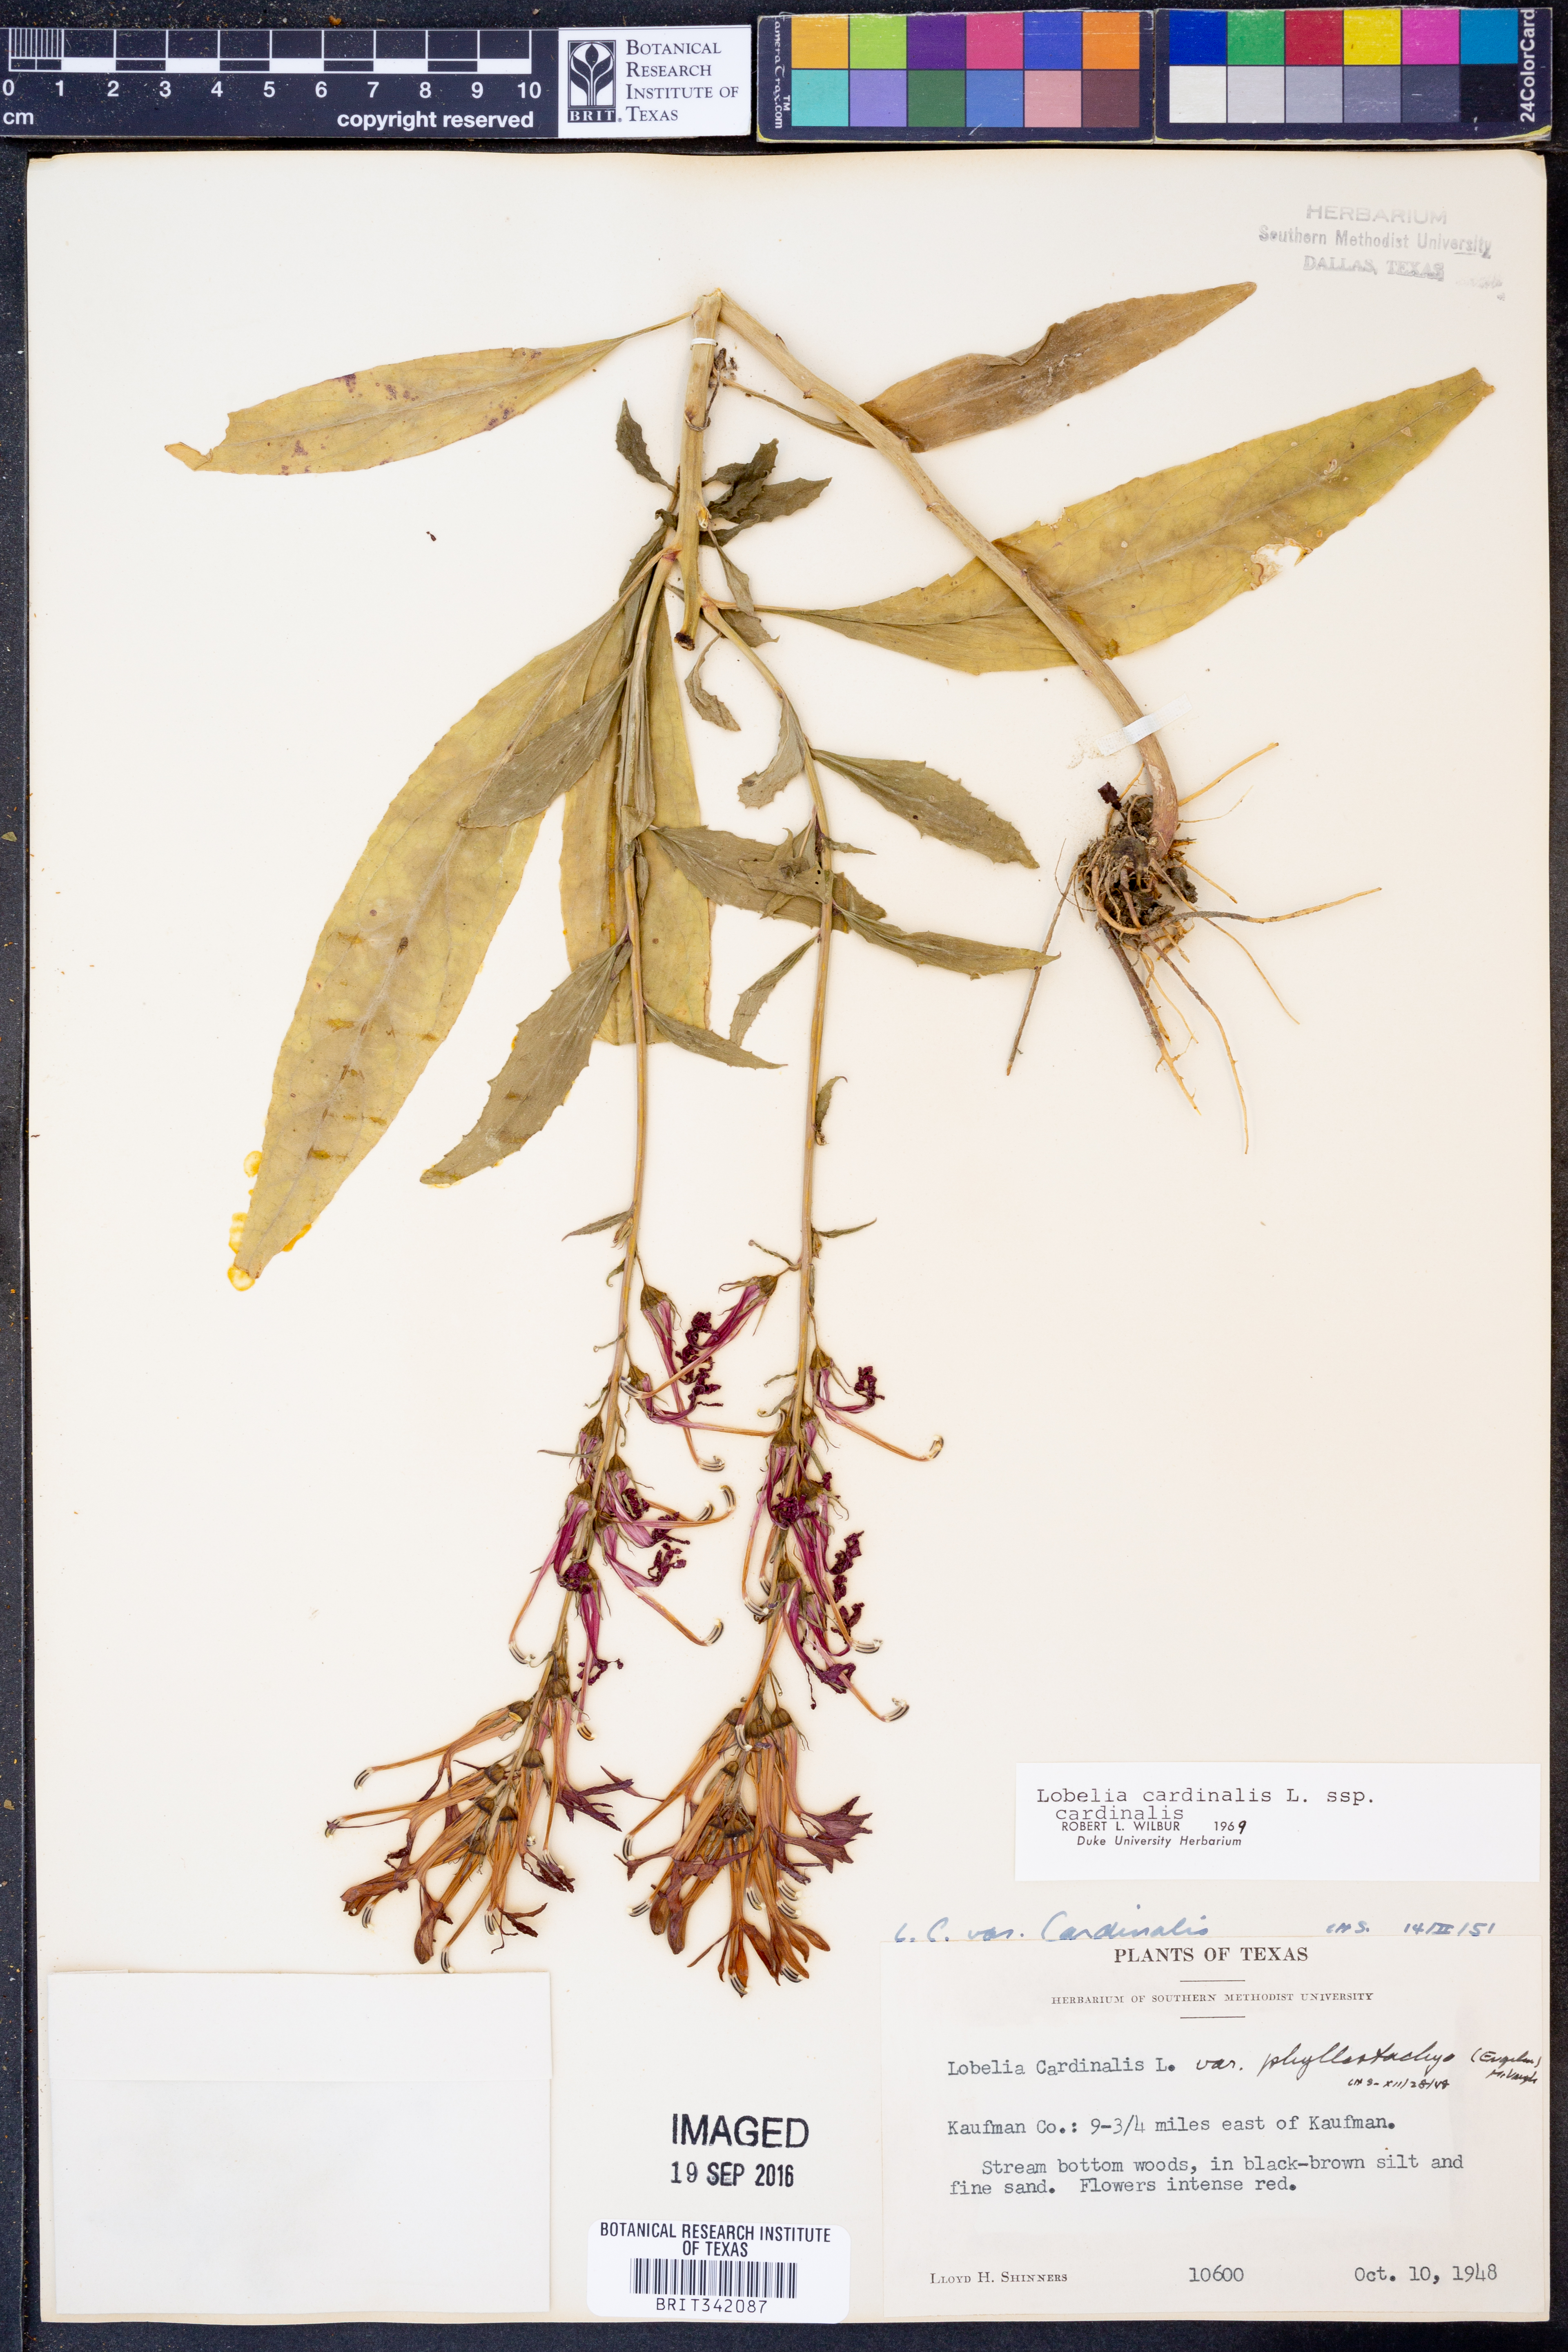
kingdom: Plantae
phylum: Tracheophyta
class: Magnoliopsida
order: Asterales
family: Campanulaceae
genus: Lobelia
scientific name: Lobelia cardinalis
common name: Cardinal flower
